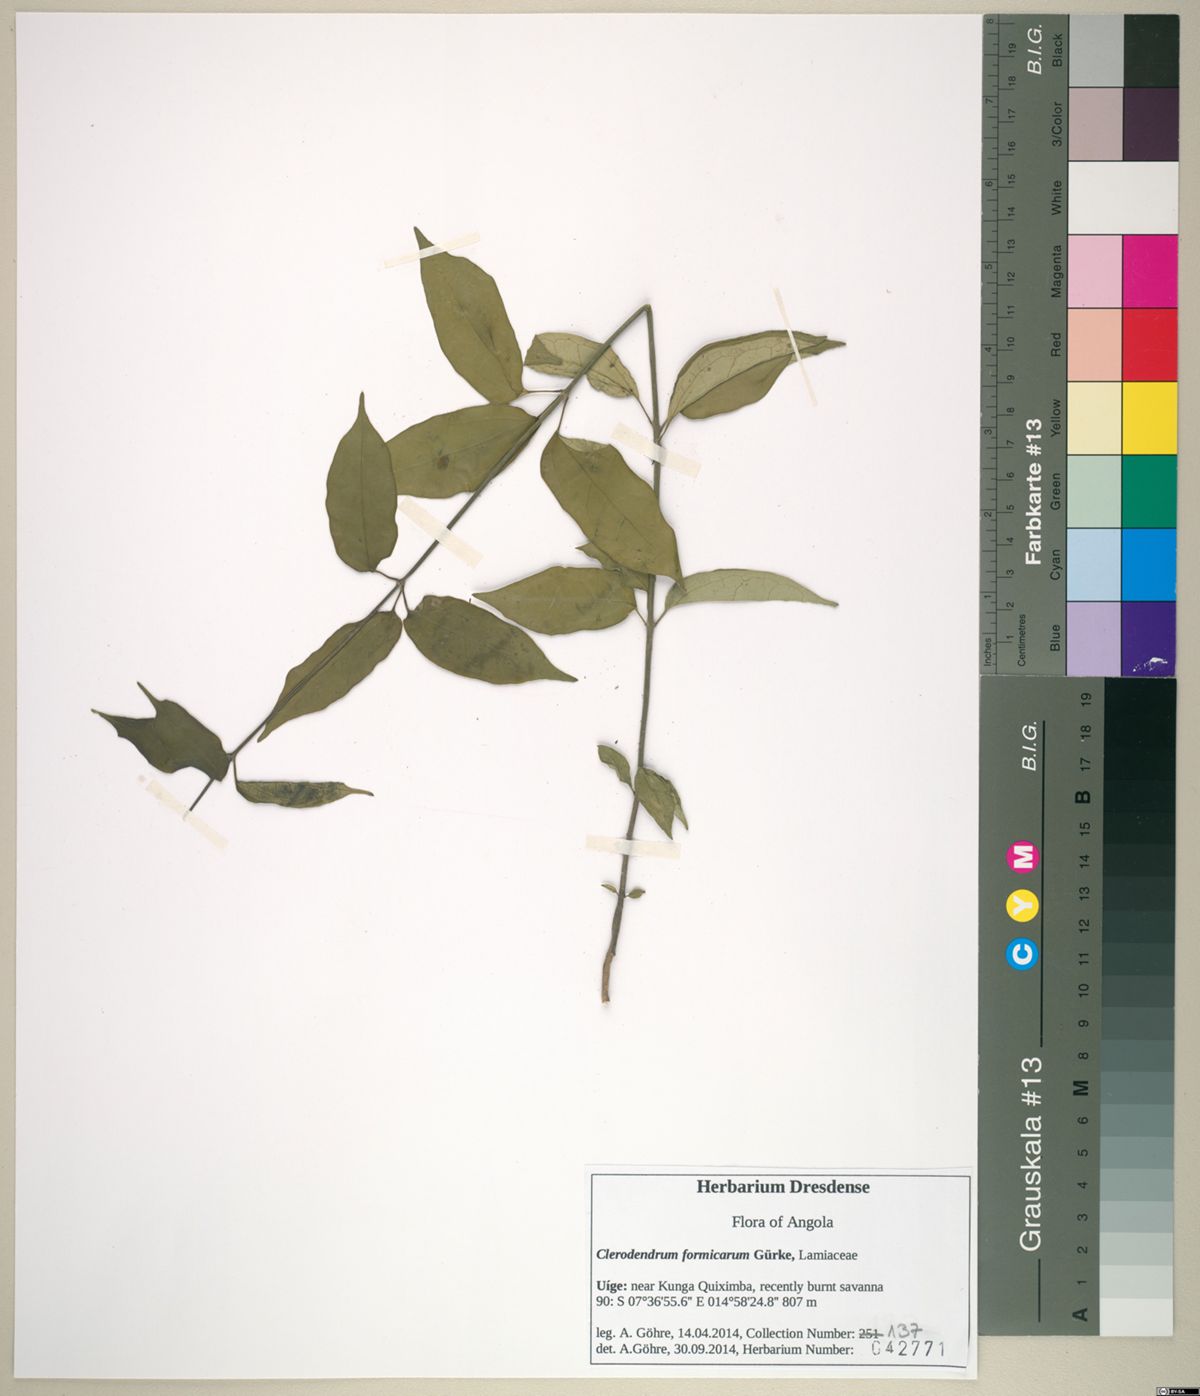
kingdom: Plantae
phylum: Tracheophyta
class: Magnoliopsida
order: Lamiales
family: Lamiaceae
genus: Clerodendrum
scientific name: Clerodendrum formicarum
